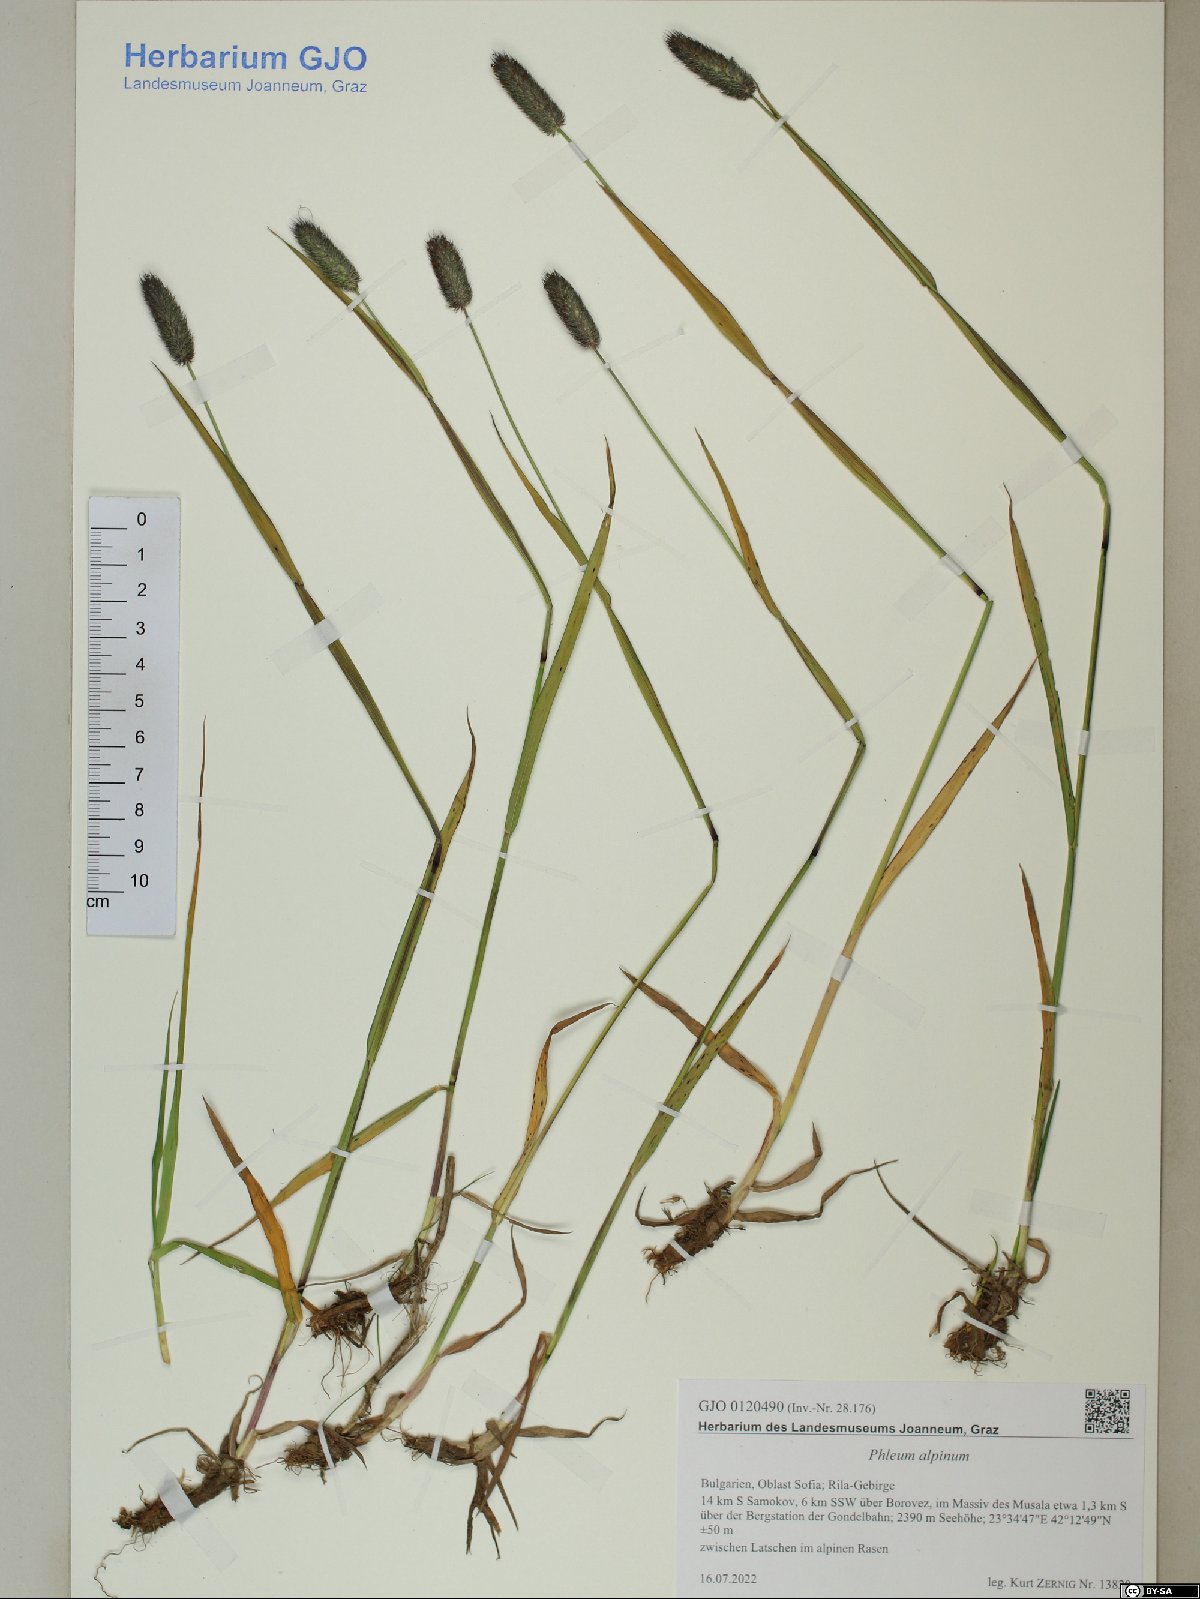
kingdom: Plantae
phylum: Tracheophyta
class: Liliopsida
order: Poales
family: Poaceae
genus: Phleum
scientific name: Phleum alpinum
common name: Alpine cat's-tail
